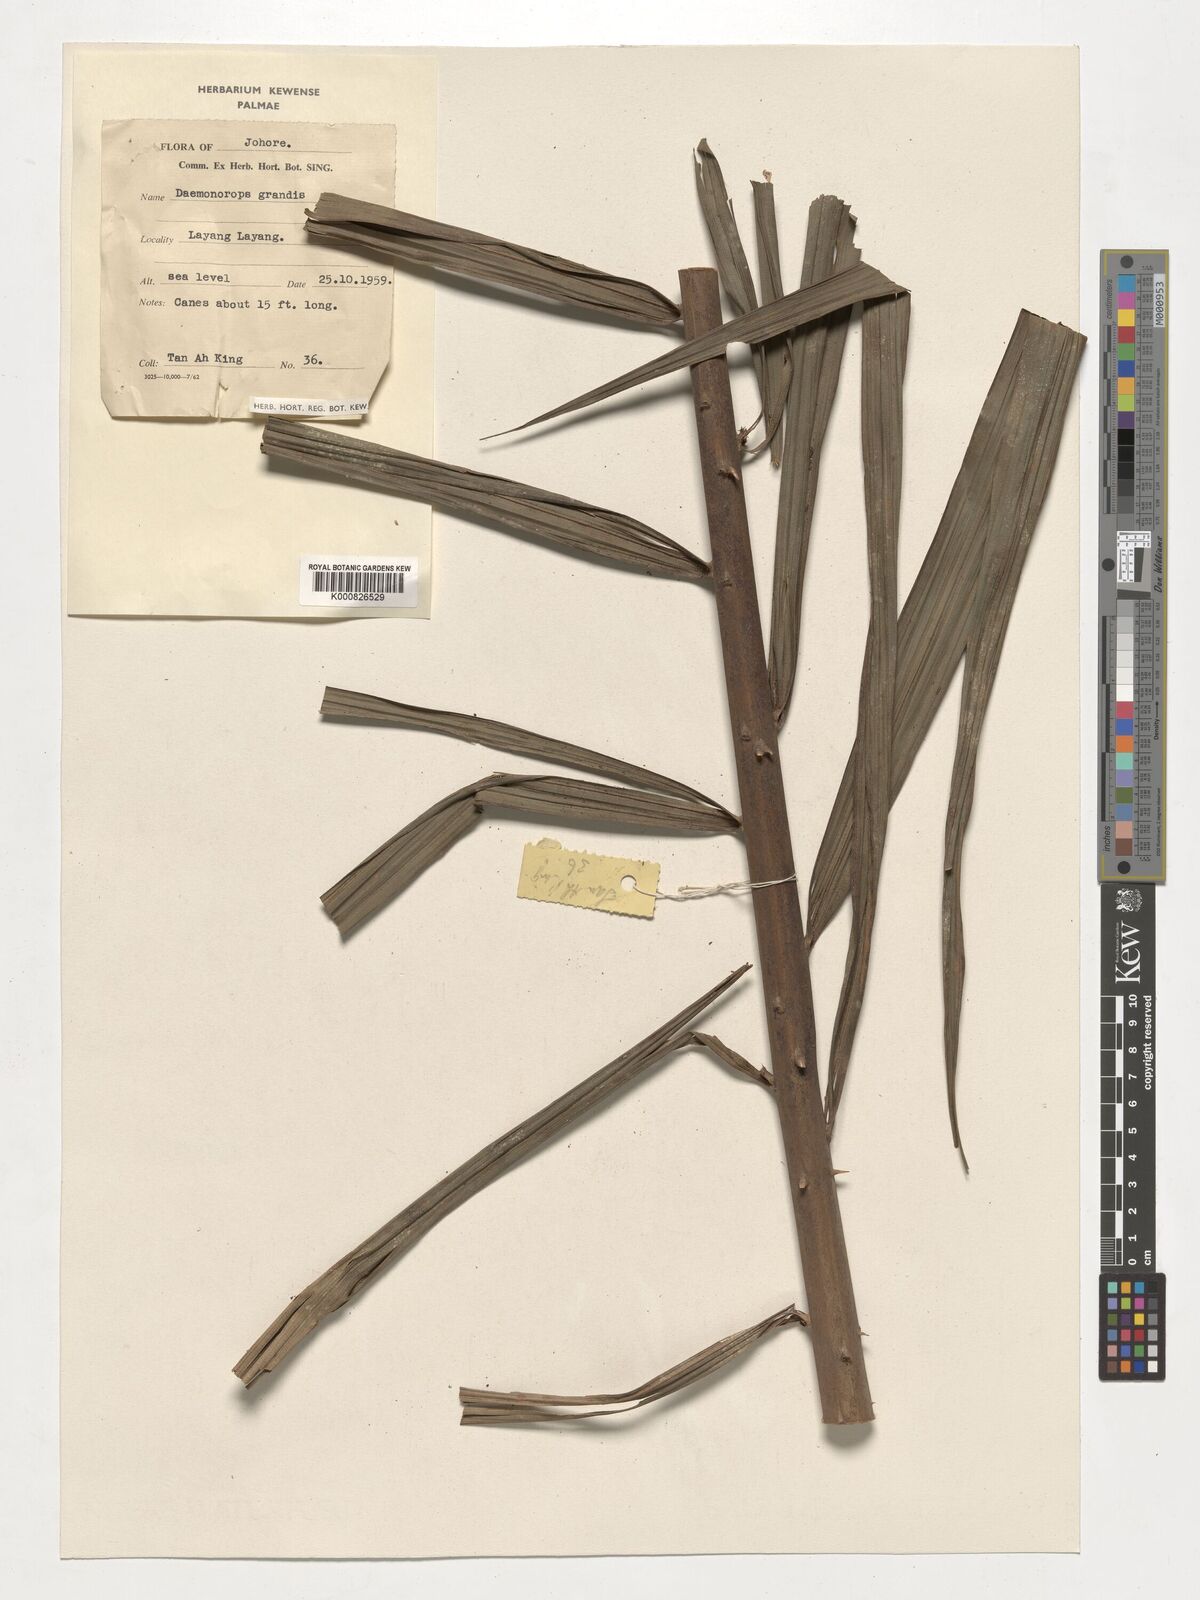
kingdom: Plantae
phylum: Tracheophyta
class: Liliopsida
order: Arecales
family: Arecaceae
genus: Calamus
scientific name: Calamus melanochaetes
